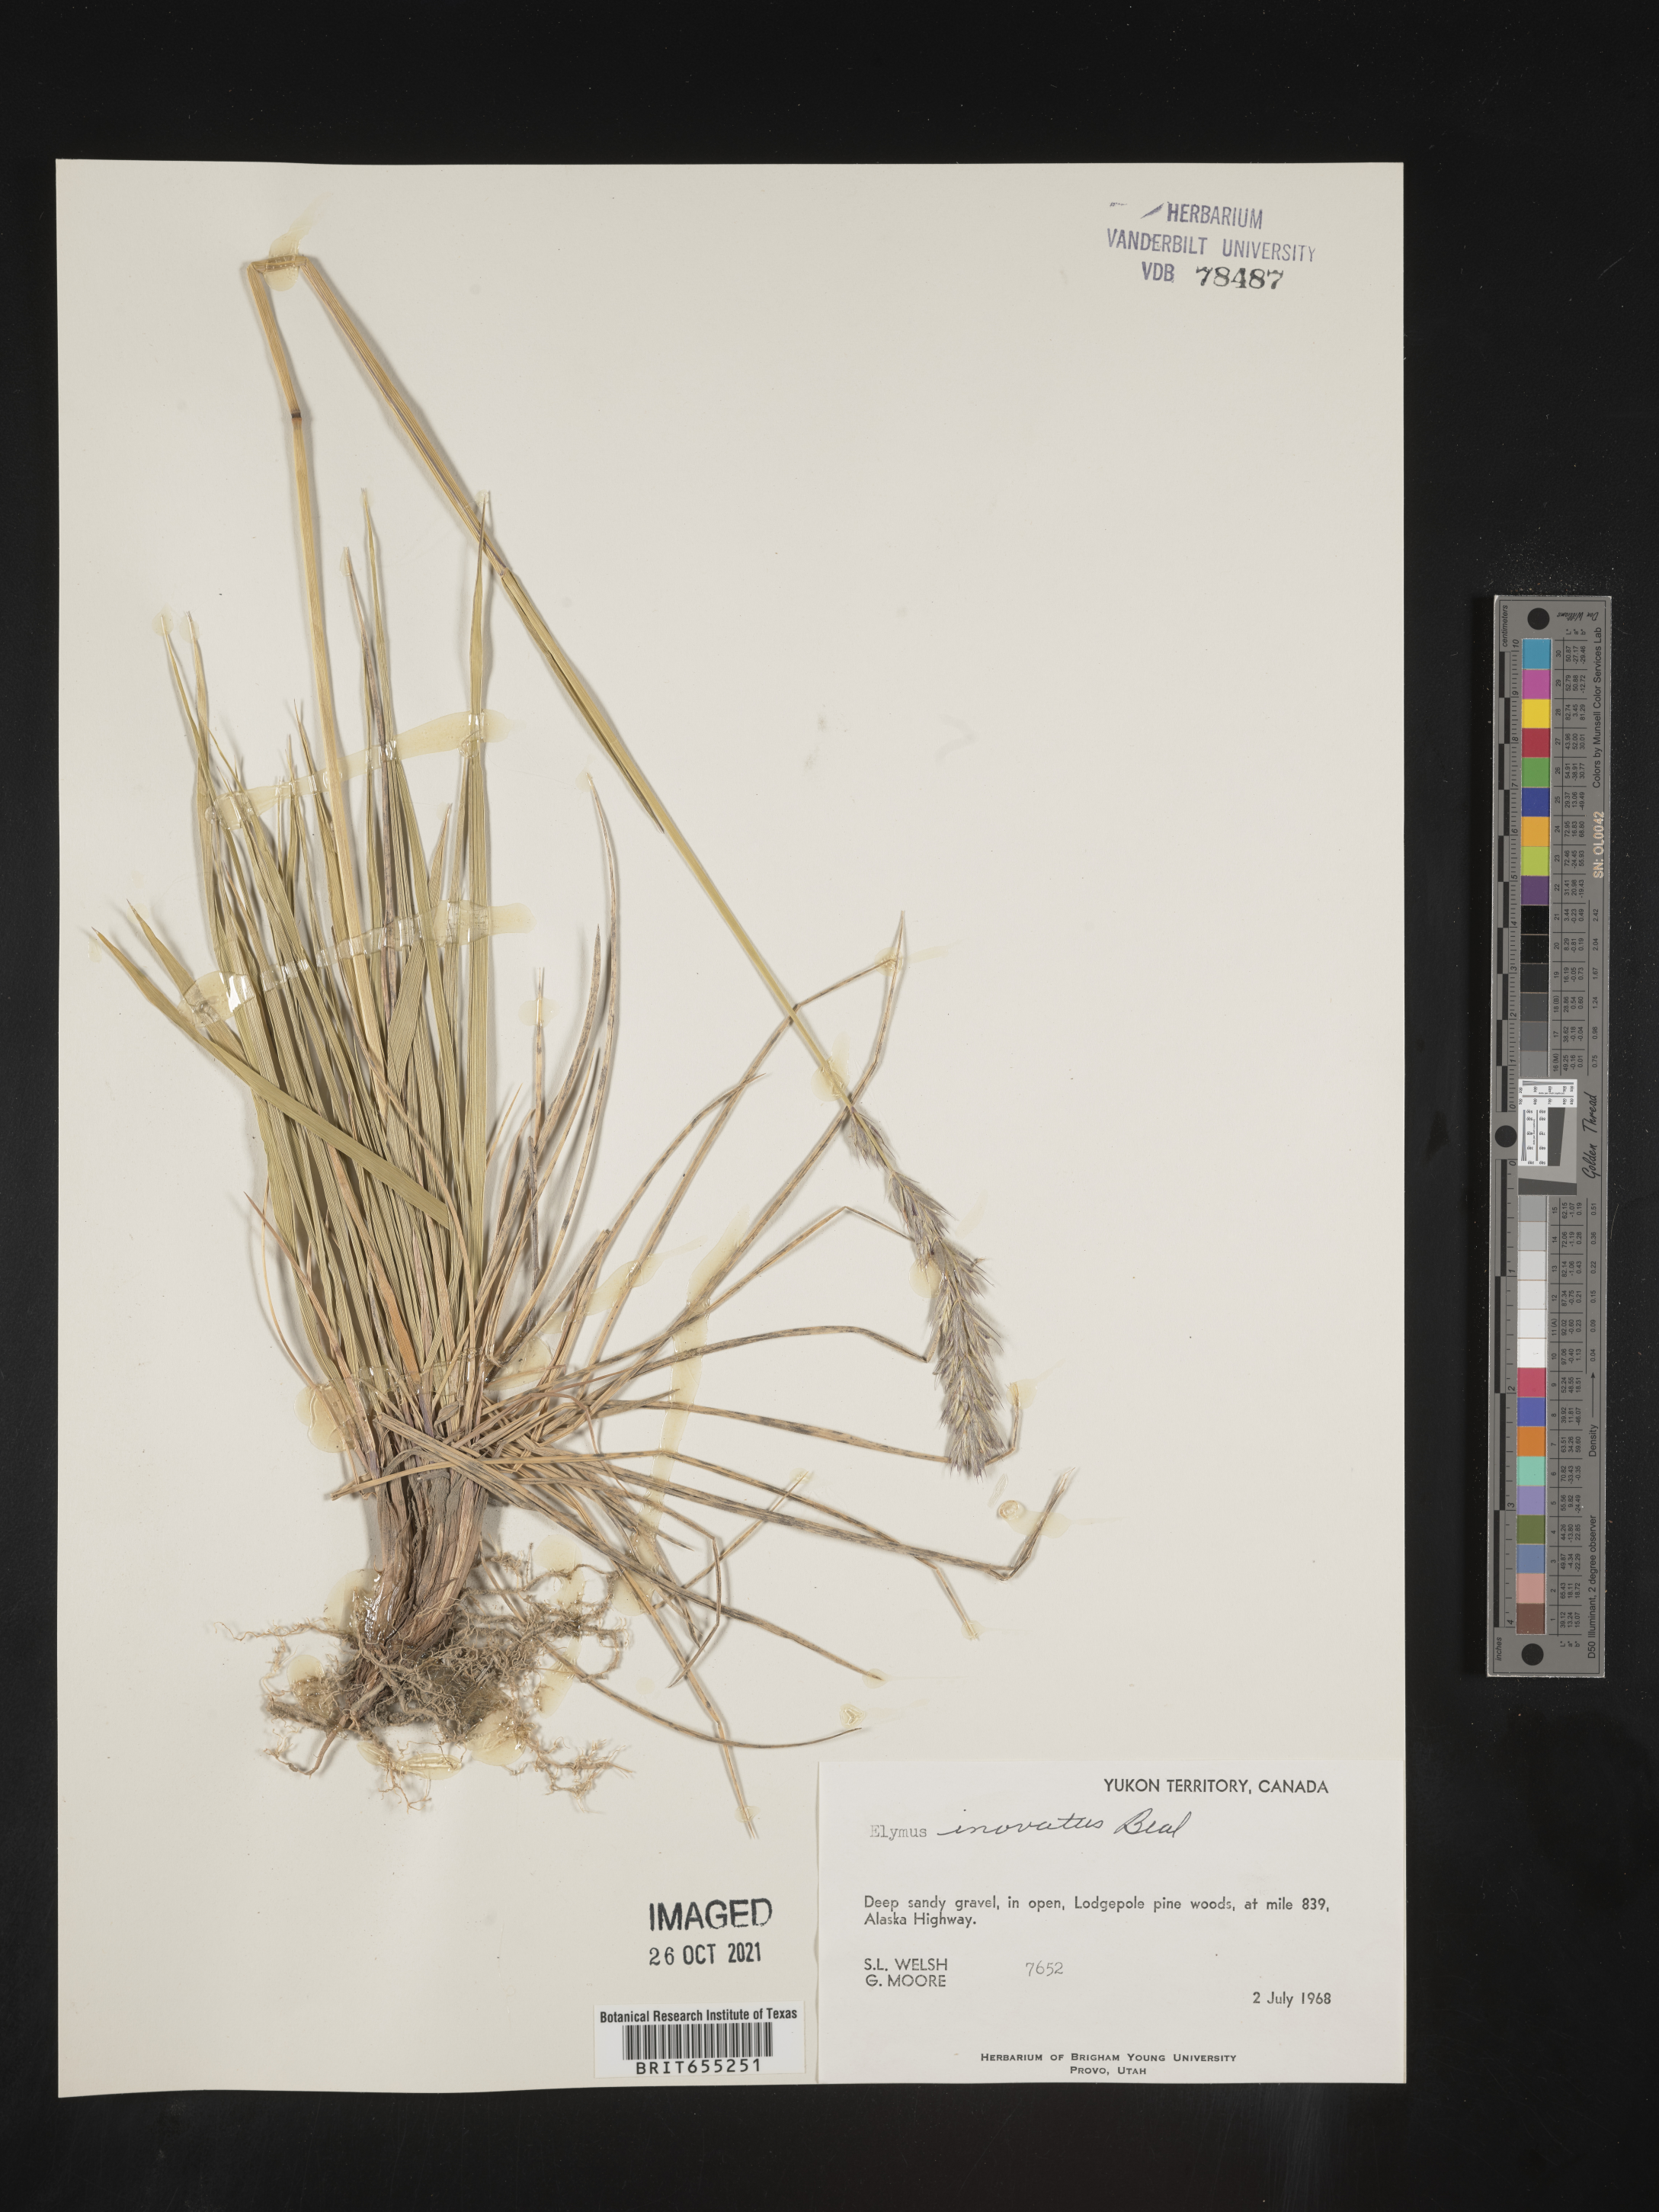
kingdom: Plantae
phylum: Tracheophyta
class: Liliopsida
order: Poales
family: Poaceae
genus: Elymus
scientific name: Elymus
